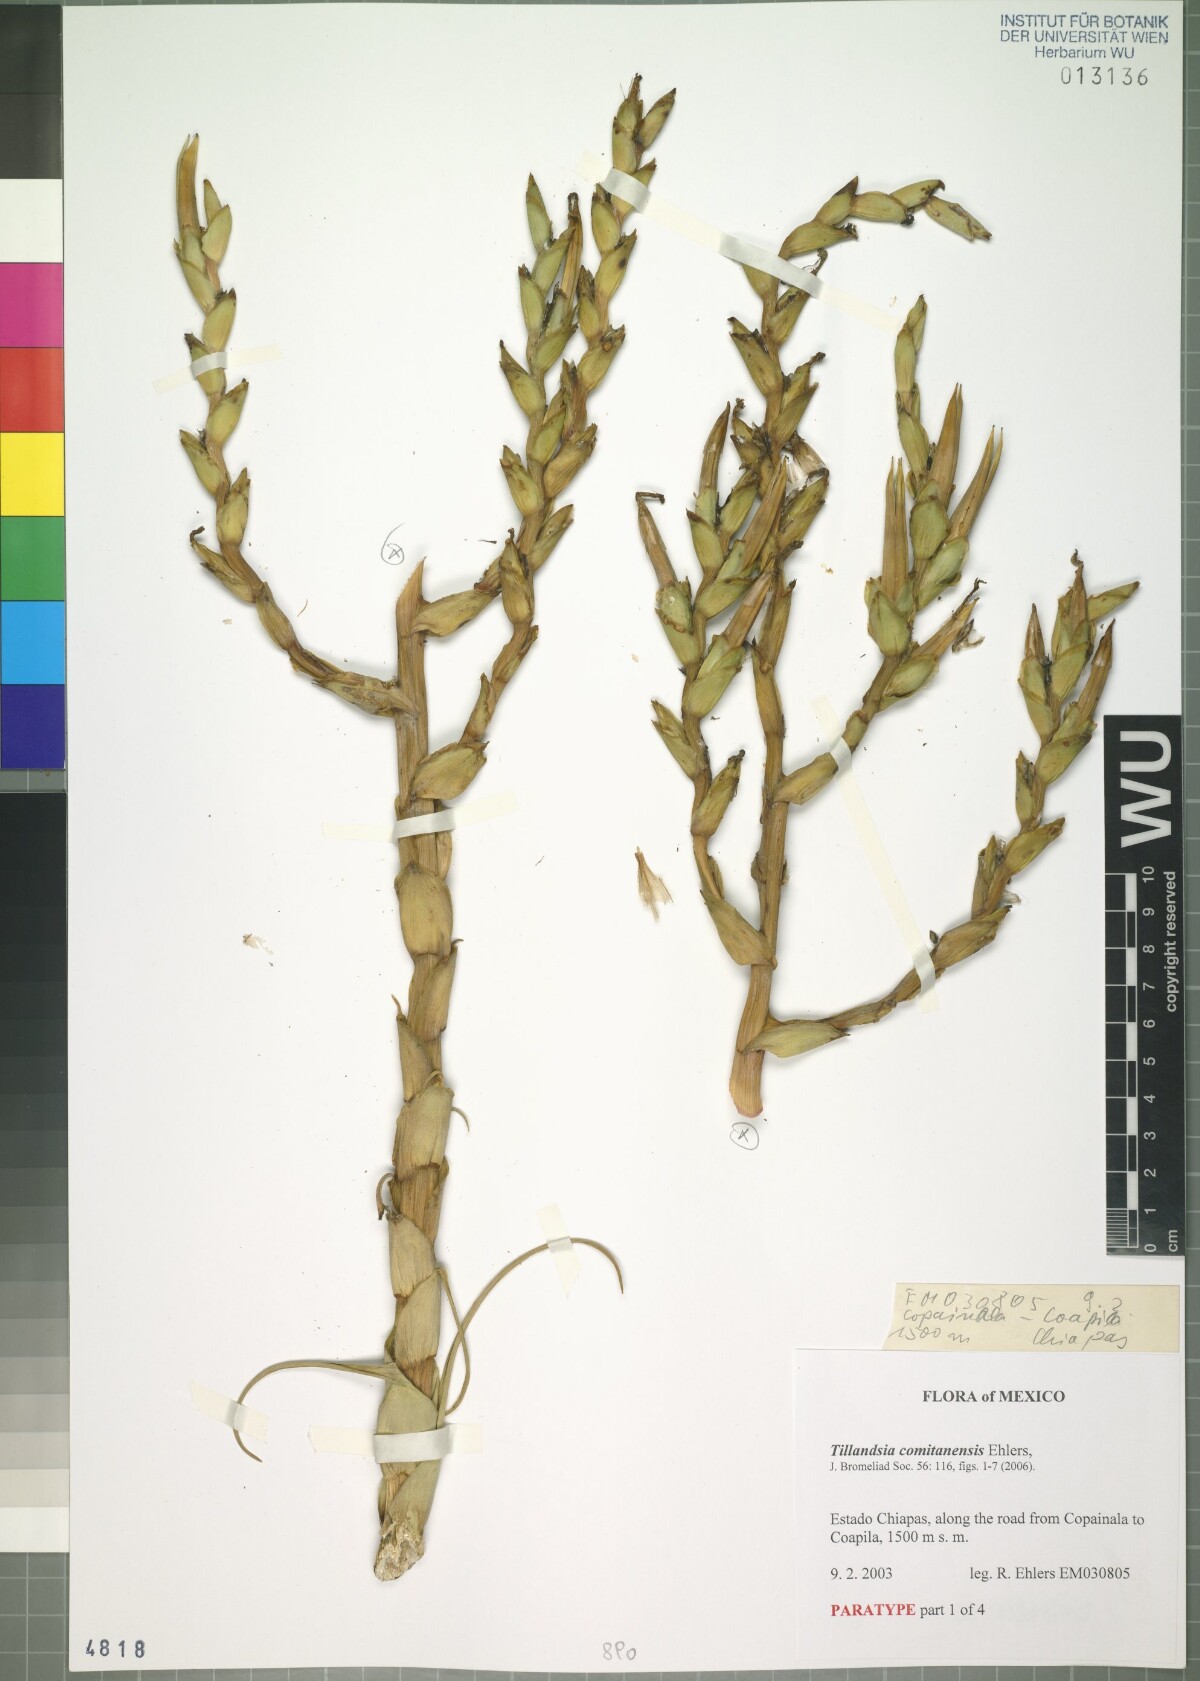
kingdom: Plantae
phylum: Tracheophyta
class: Liliopsida
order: Poales
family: Bromeliaceae
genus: Tillandsia
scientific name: Tillandsia comitanensis
